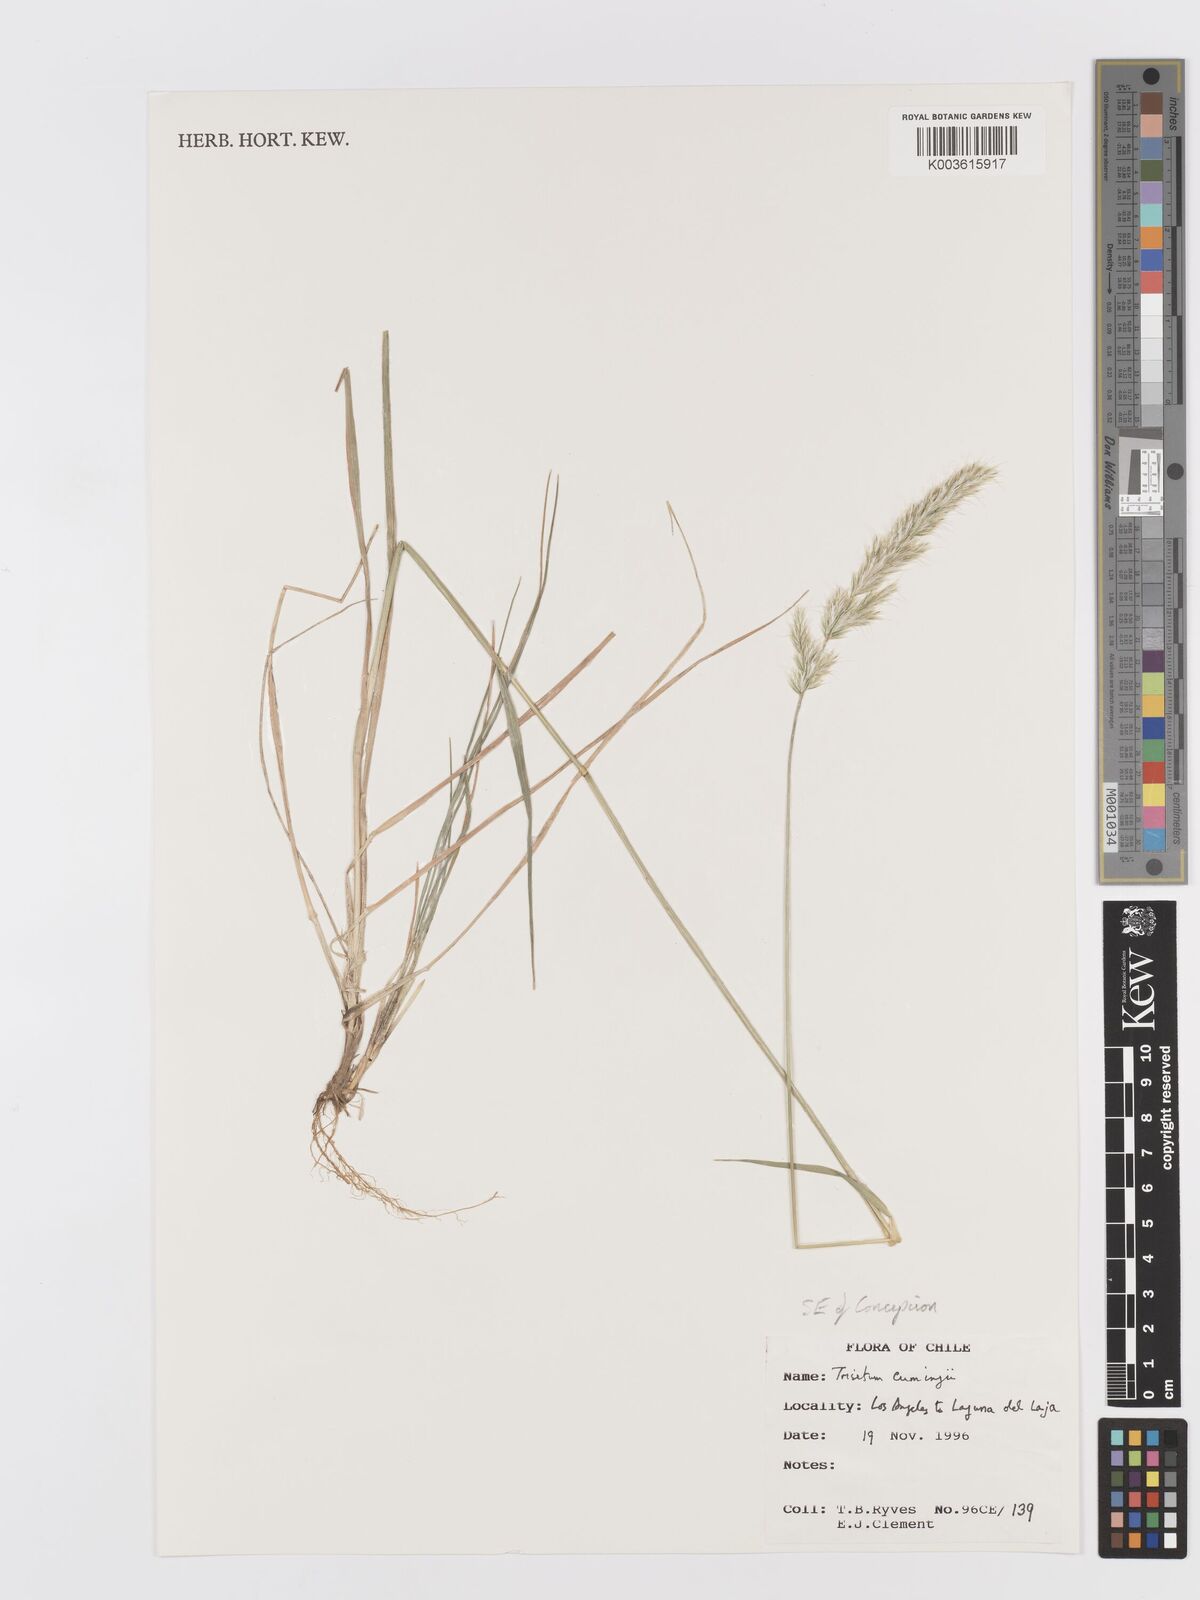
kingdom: Plantae
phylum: Tracheophyta
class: Liliopsida
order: Poales
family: Poaceae
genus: Koeleria
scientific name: Koeleria cumingii
